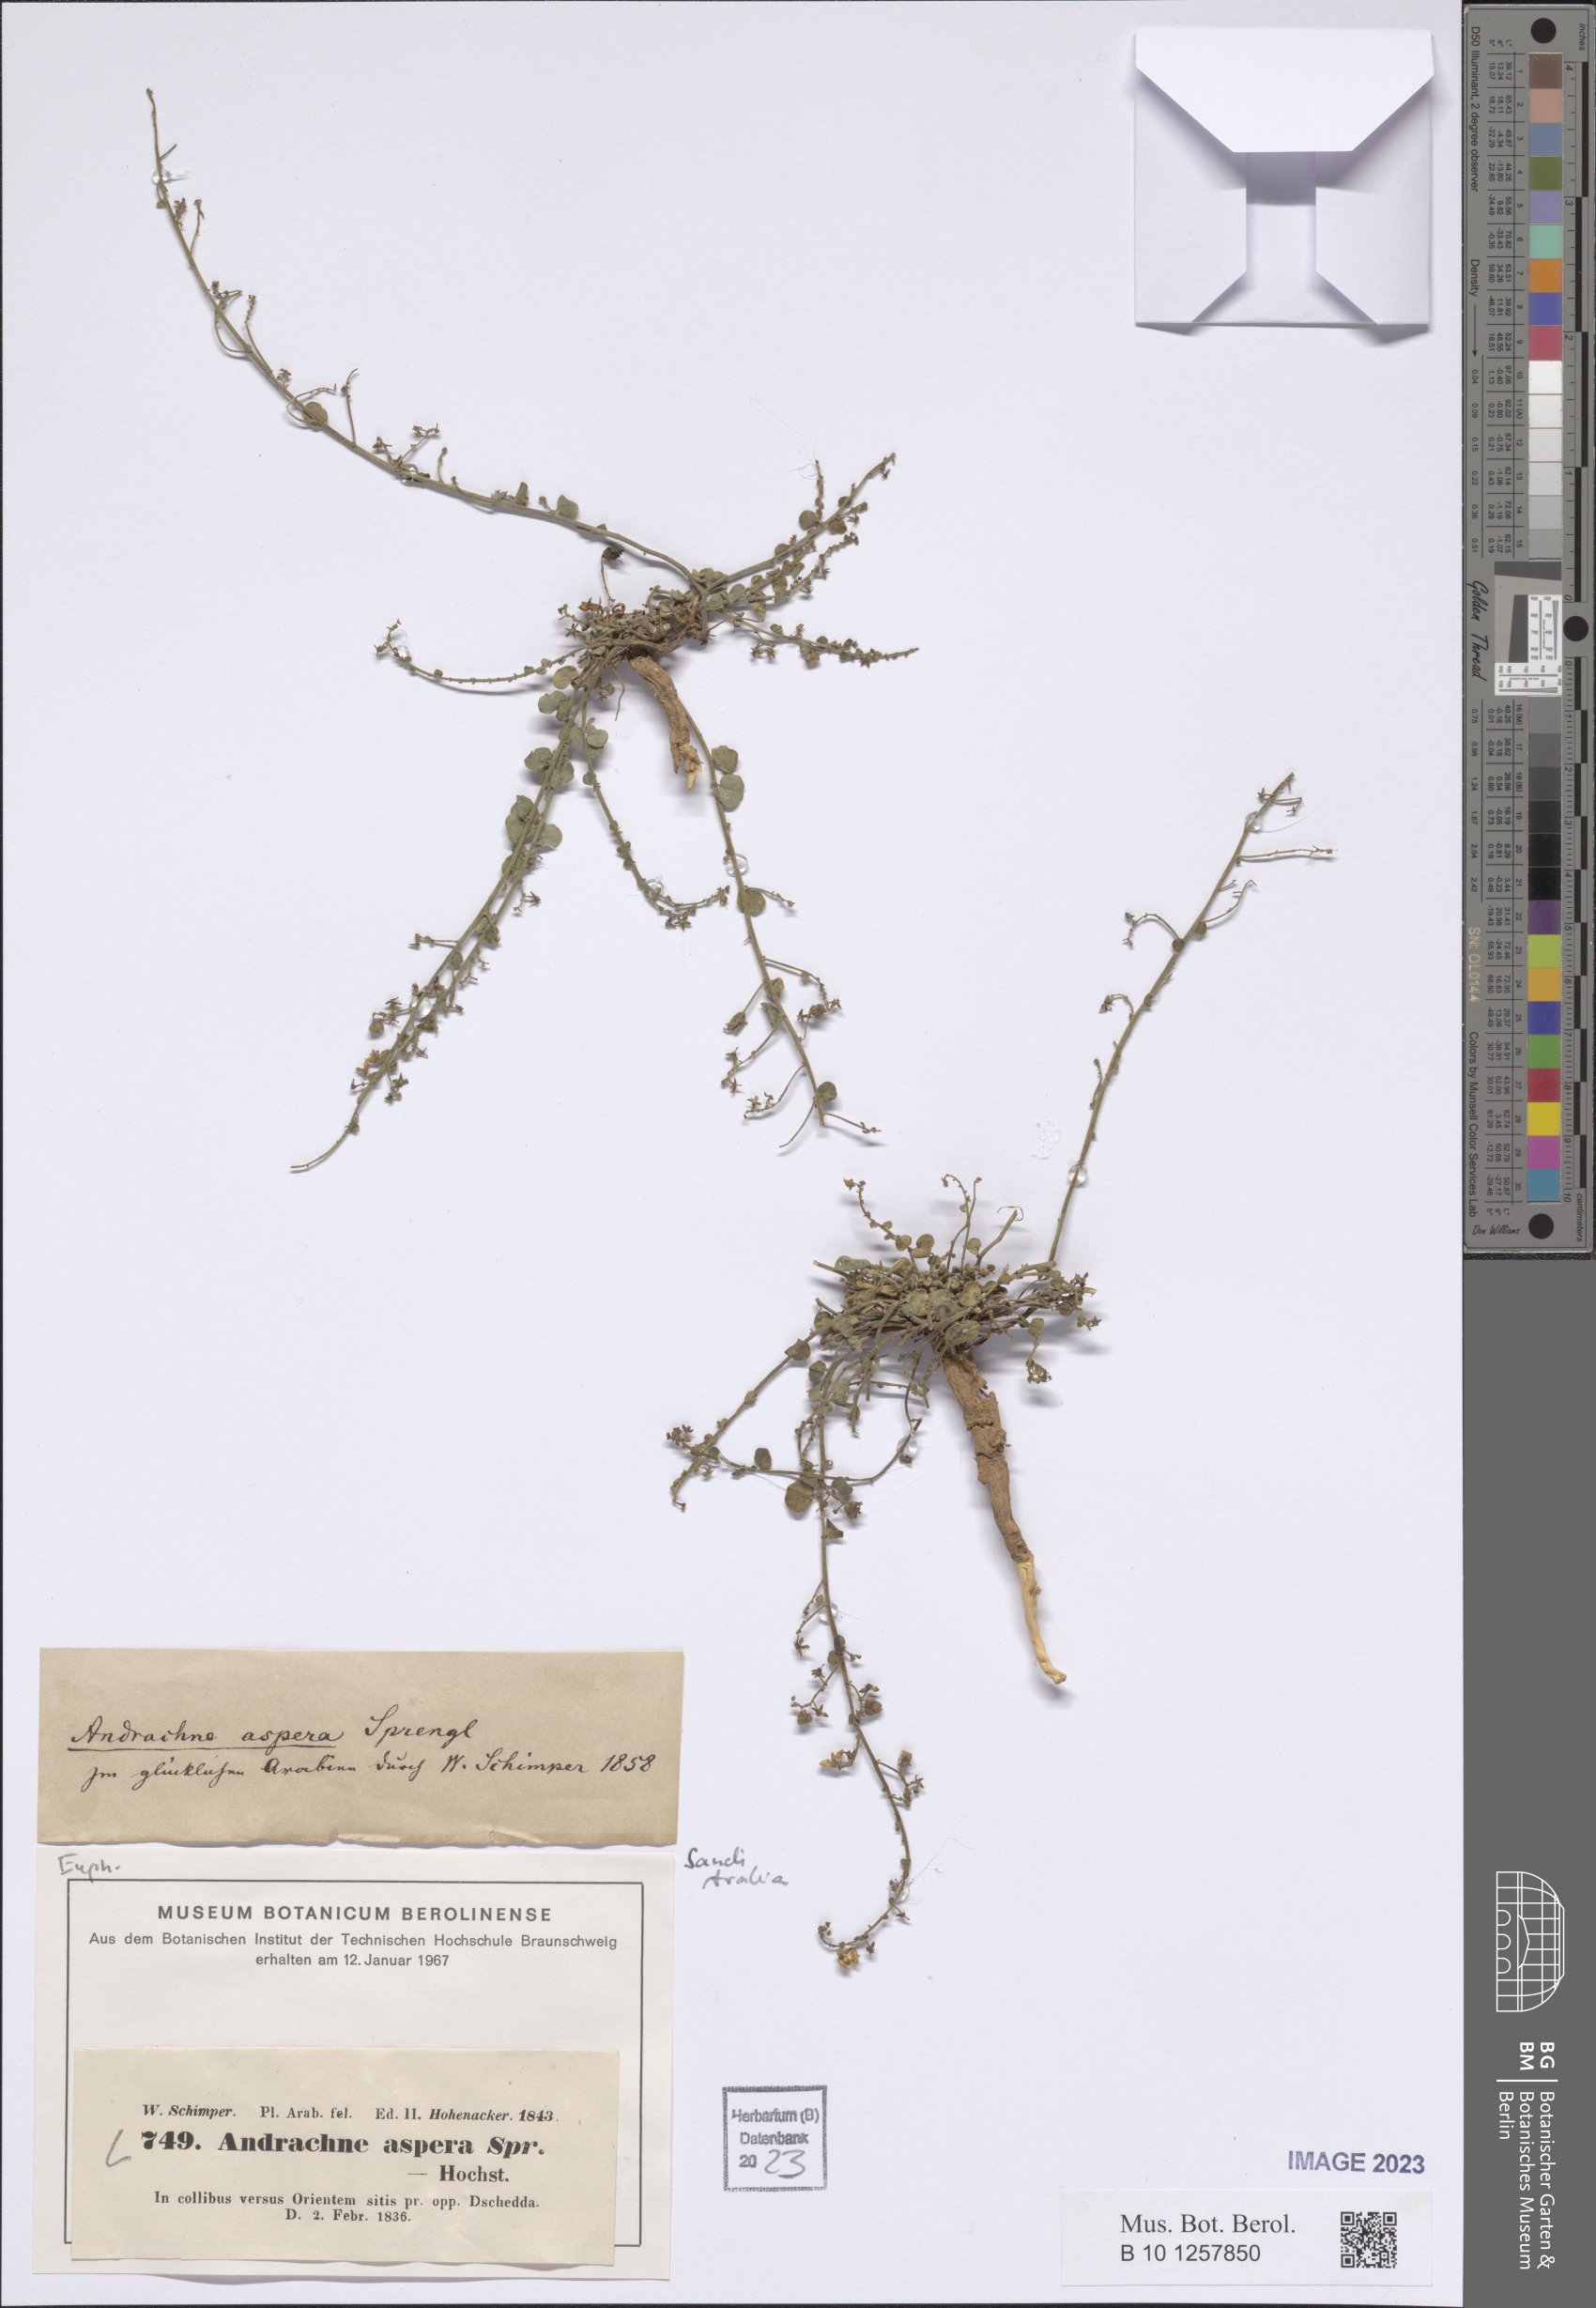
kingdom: Plantae
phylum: Tracheophyta
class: Magnoliopsida
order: Malpighiales
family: Phyllanthaceae
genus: Andrachne
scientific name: Andrachne aspera
